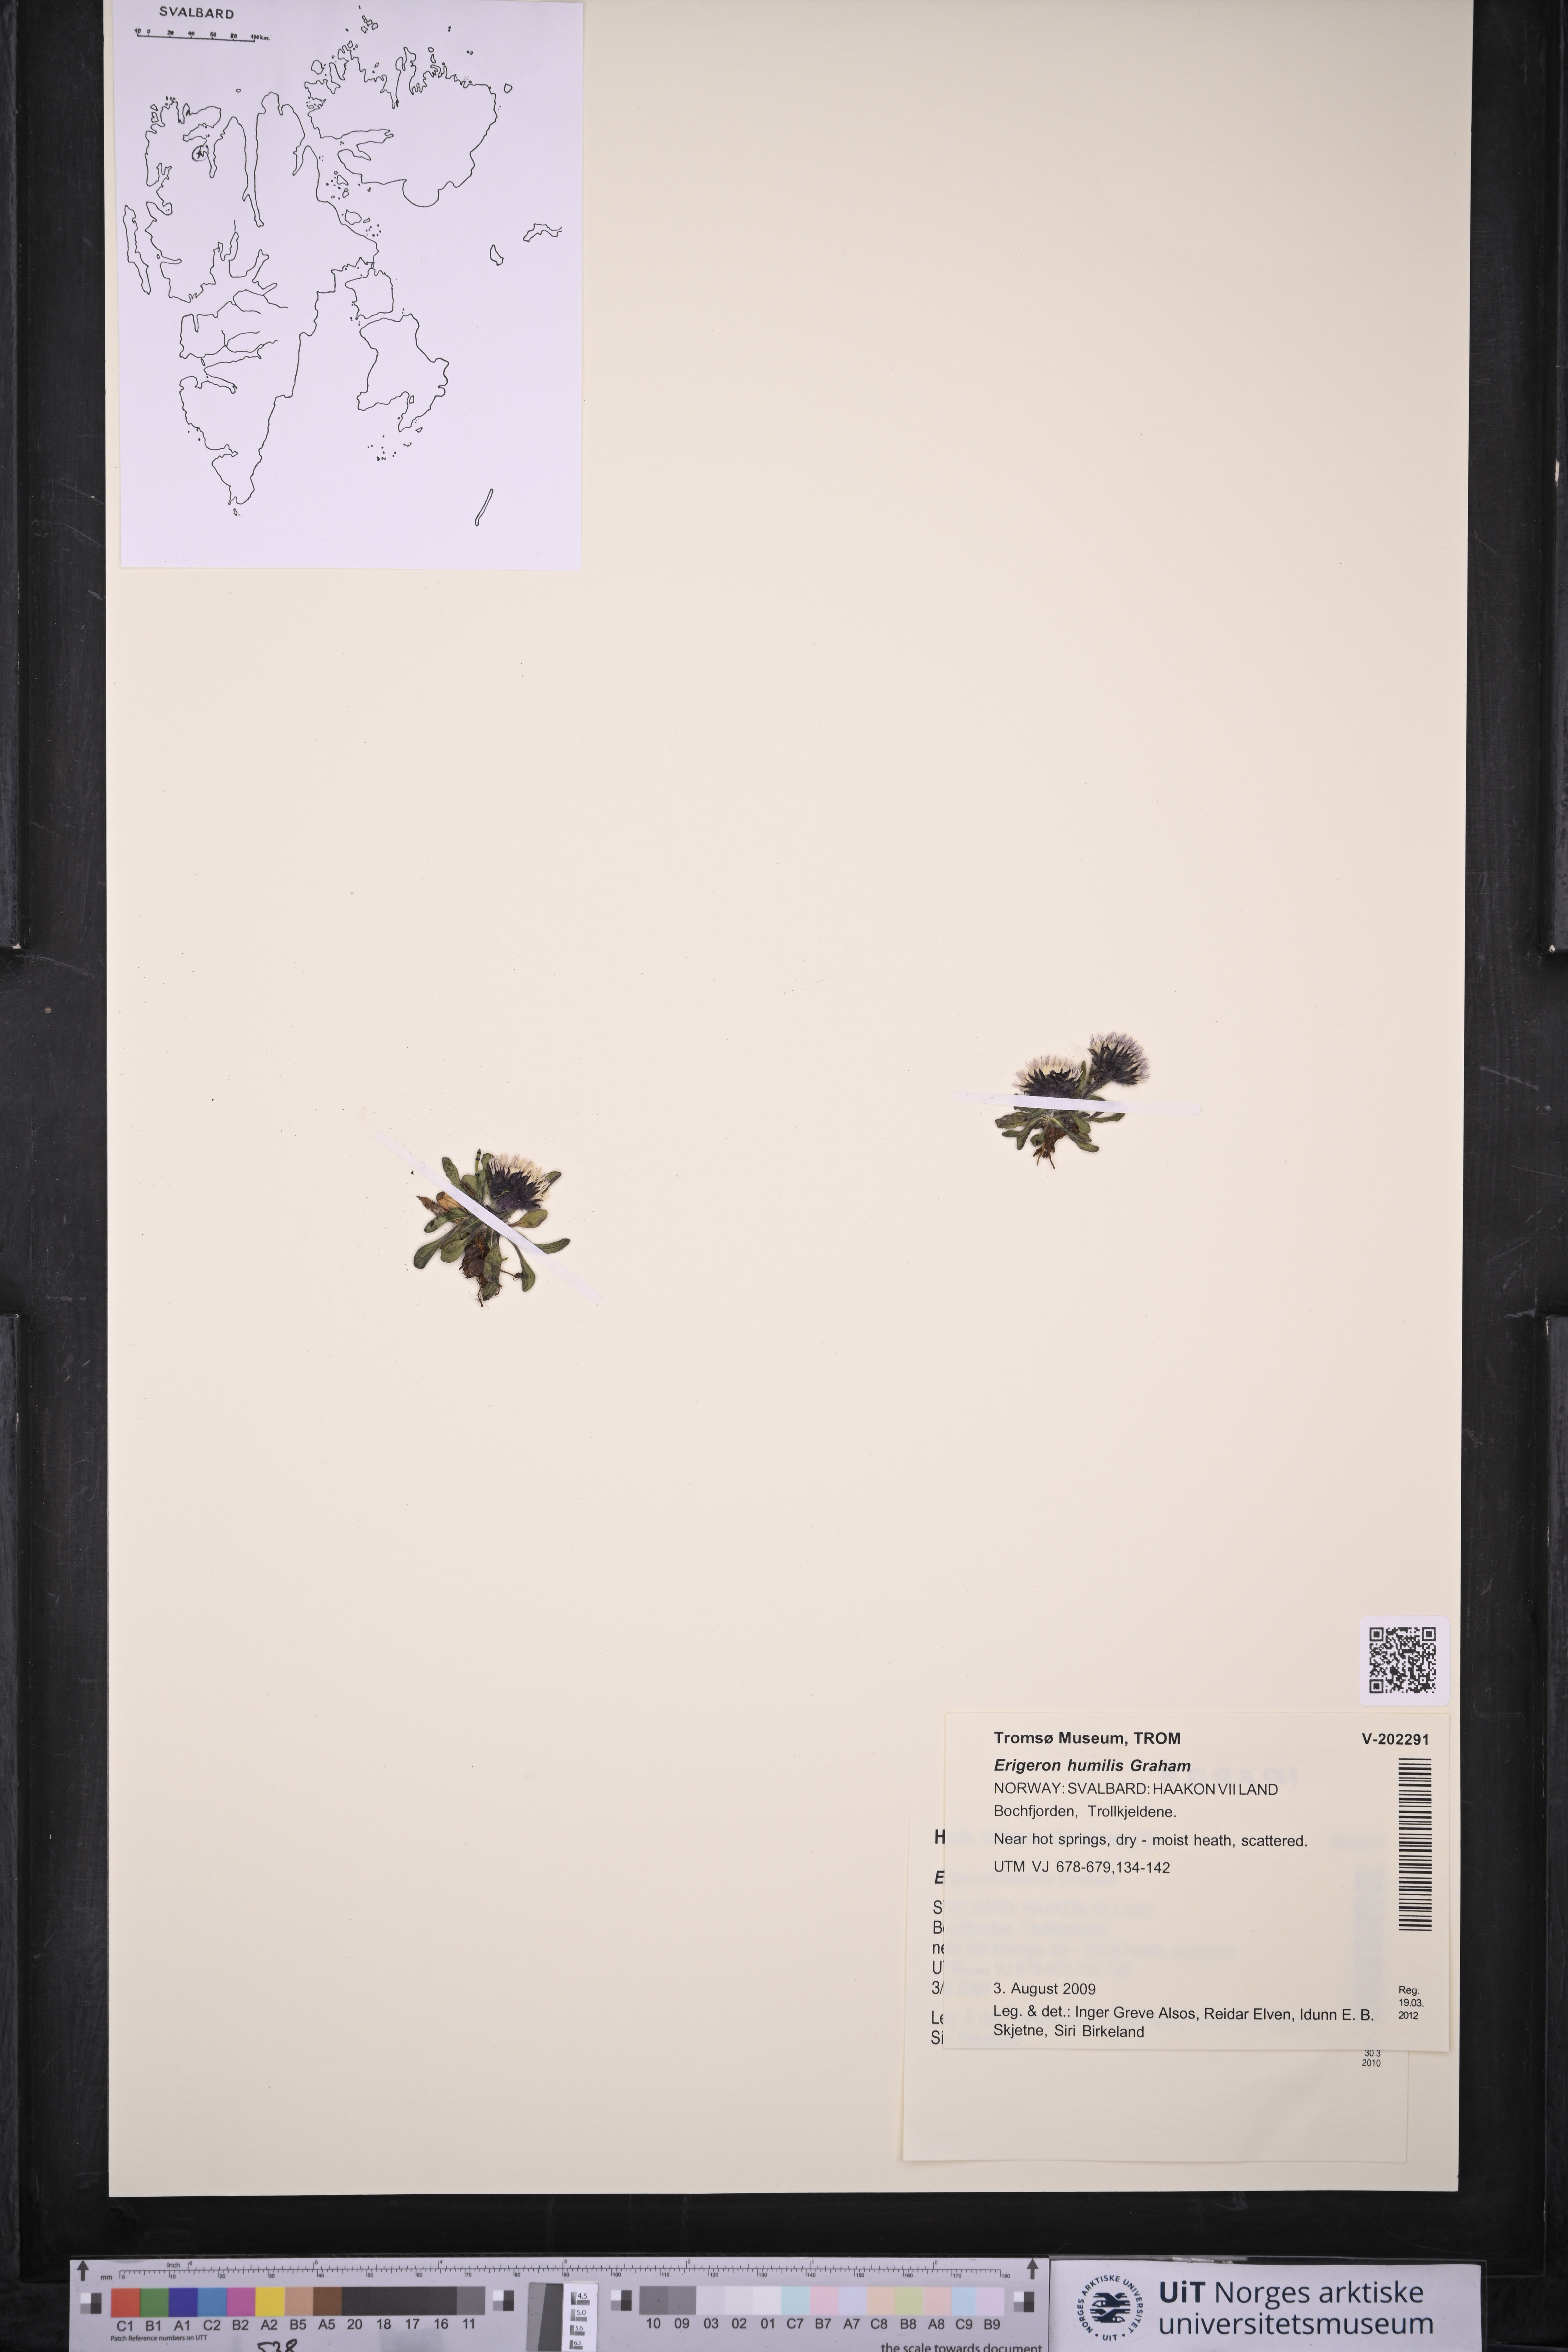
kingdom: Plantae
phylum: Tracheophyta
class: Magnoliopsida
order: Asterales
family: Asteraceae
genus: Erigeron
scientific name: Erigeron humilis
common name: Arctic-alpine fleabane
